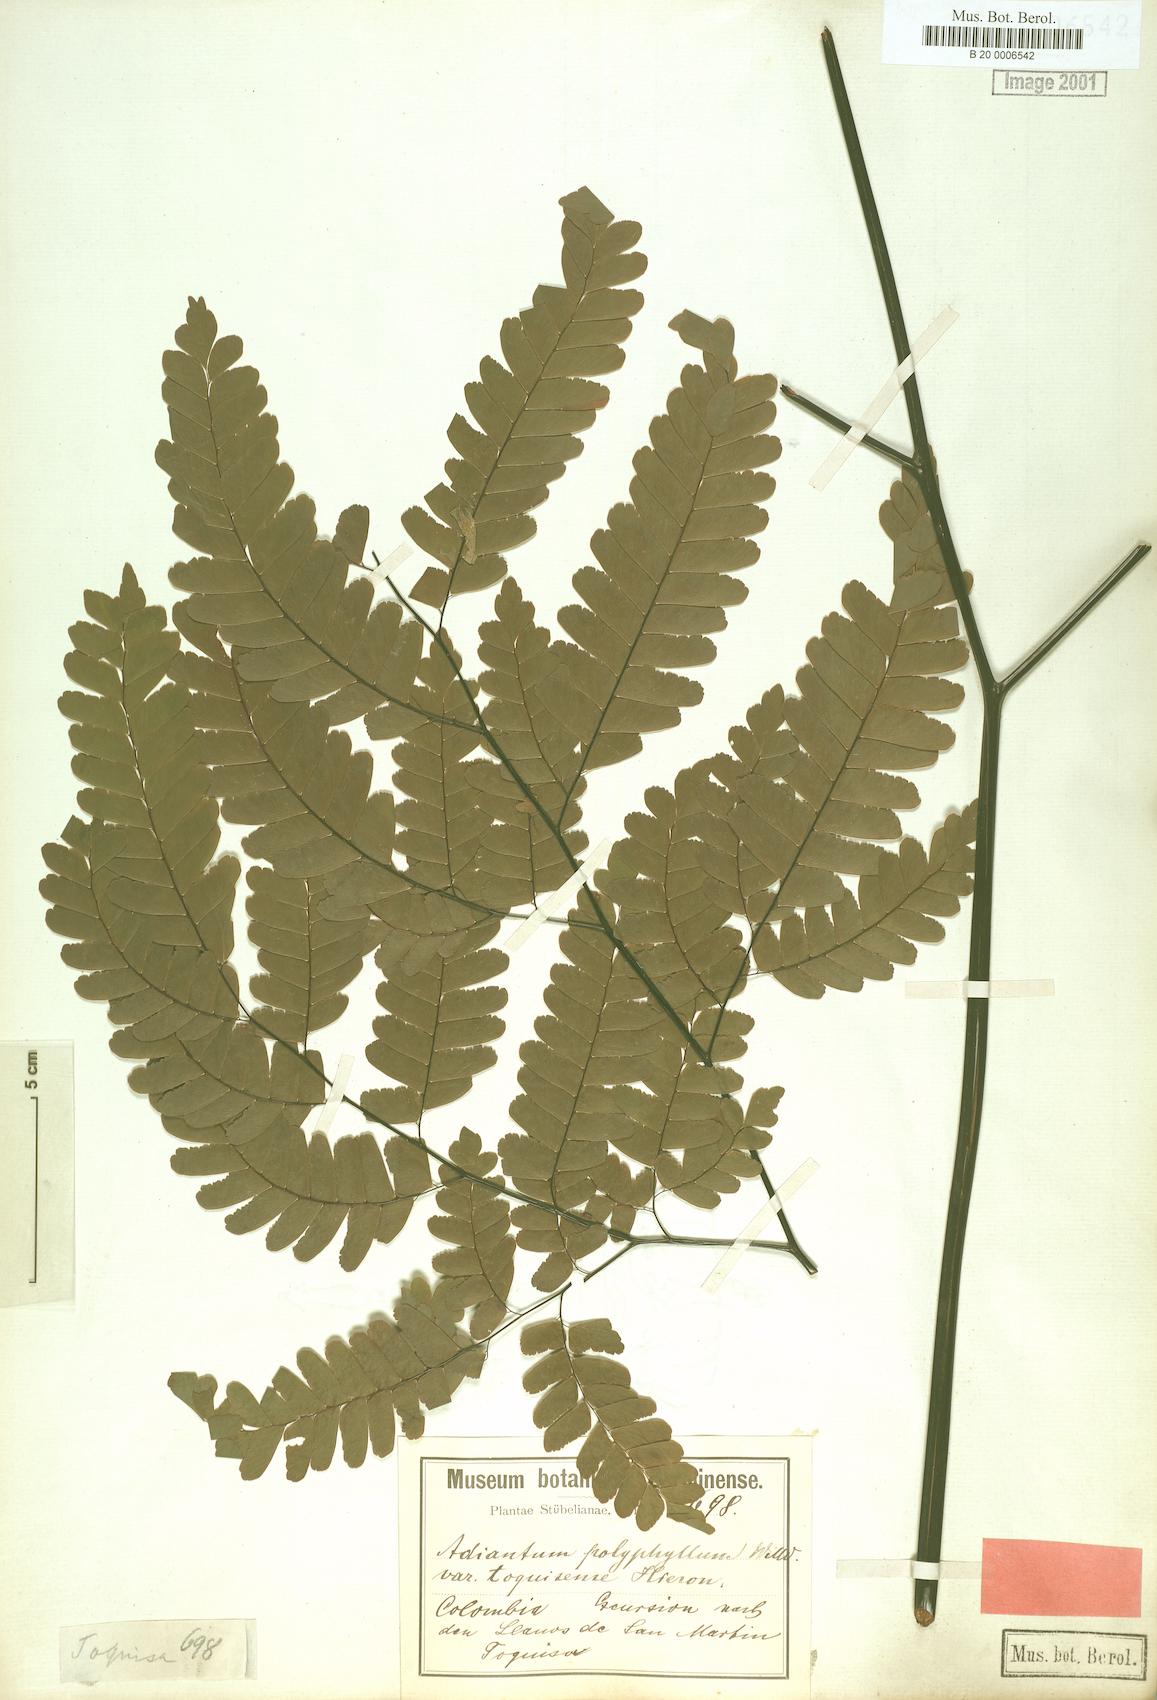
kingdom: Plantae
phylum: Tracheophyta
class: Polypodiopsida
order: Polypodiales
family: Pteridaceae
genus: Adiantum
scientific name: Adiantum polyphyllum
